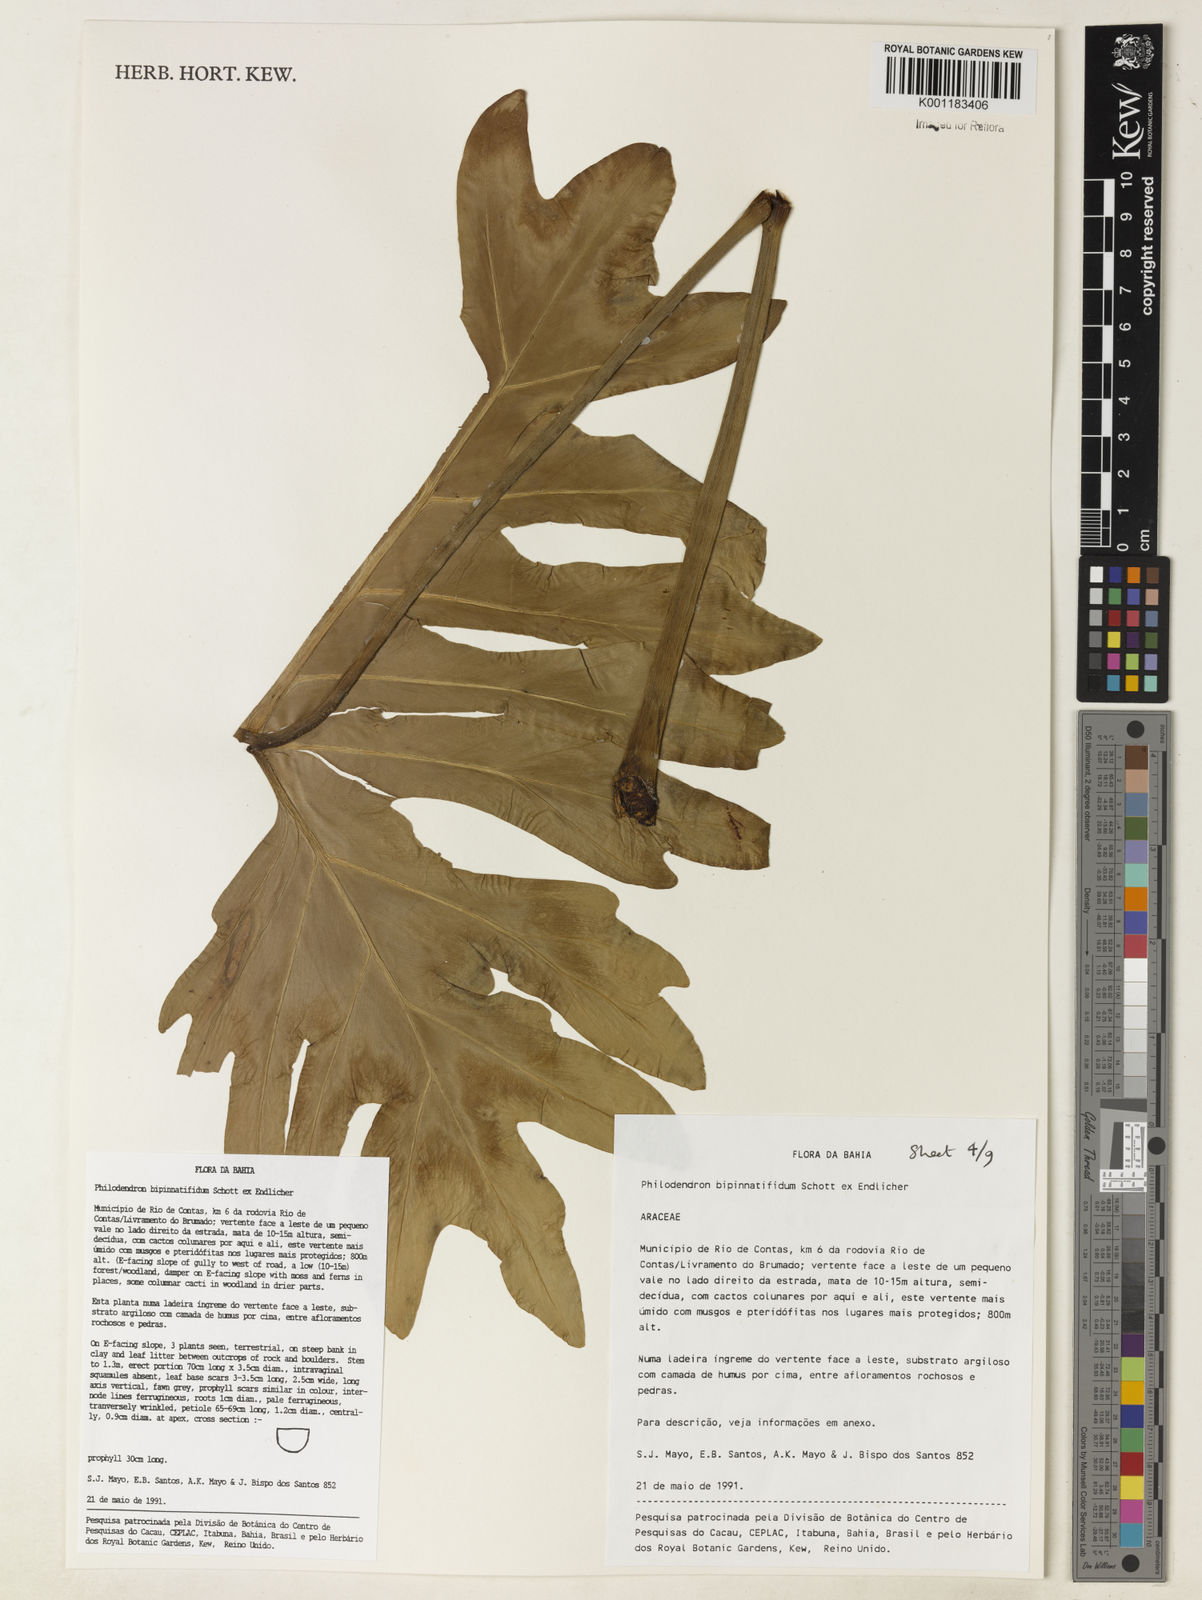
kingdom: Plantae
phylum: Tracheophyta
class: Liliopsida
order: Alismatales
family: Araceae
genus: Philodendron
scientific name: Philodendron
